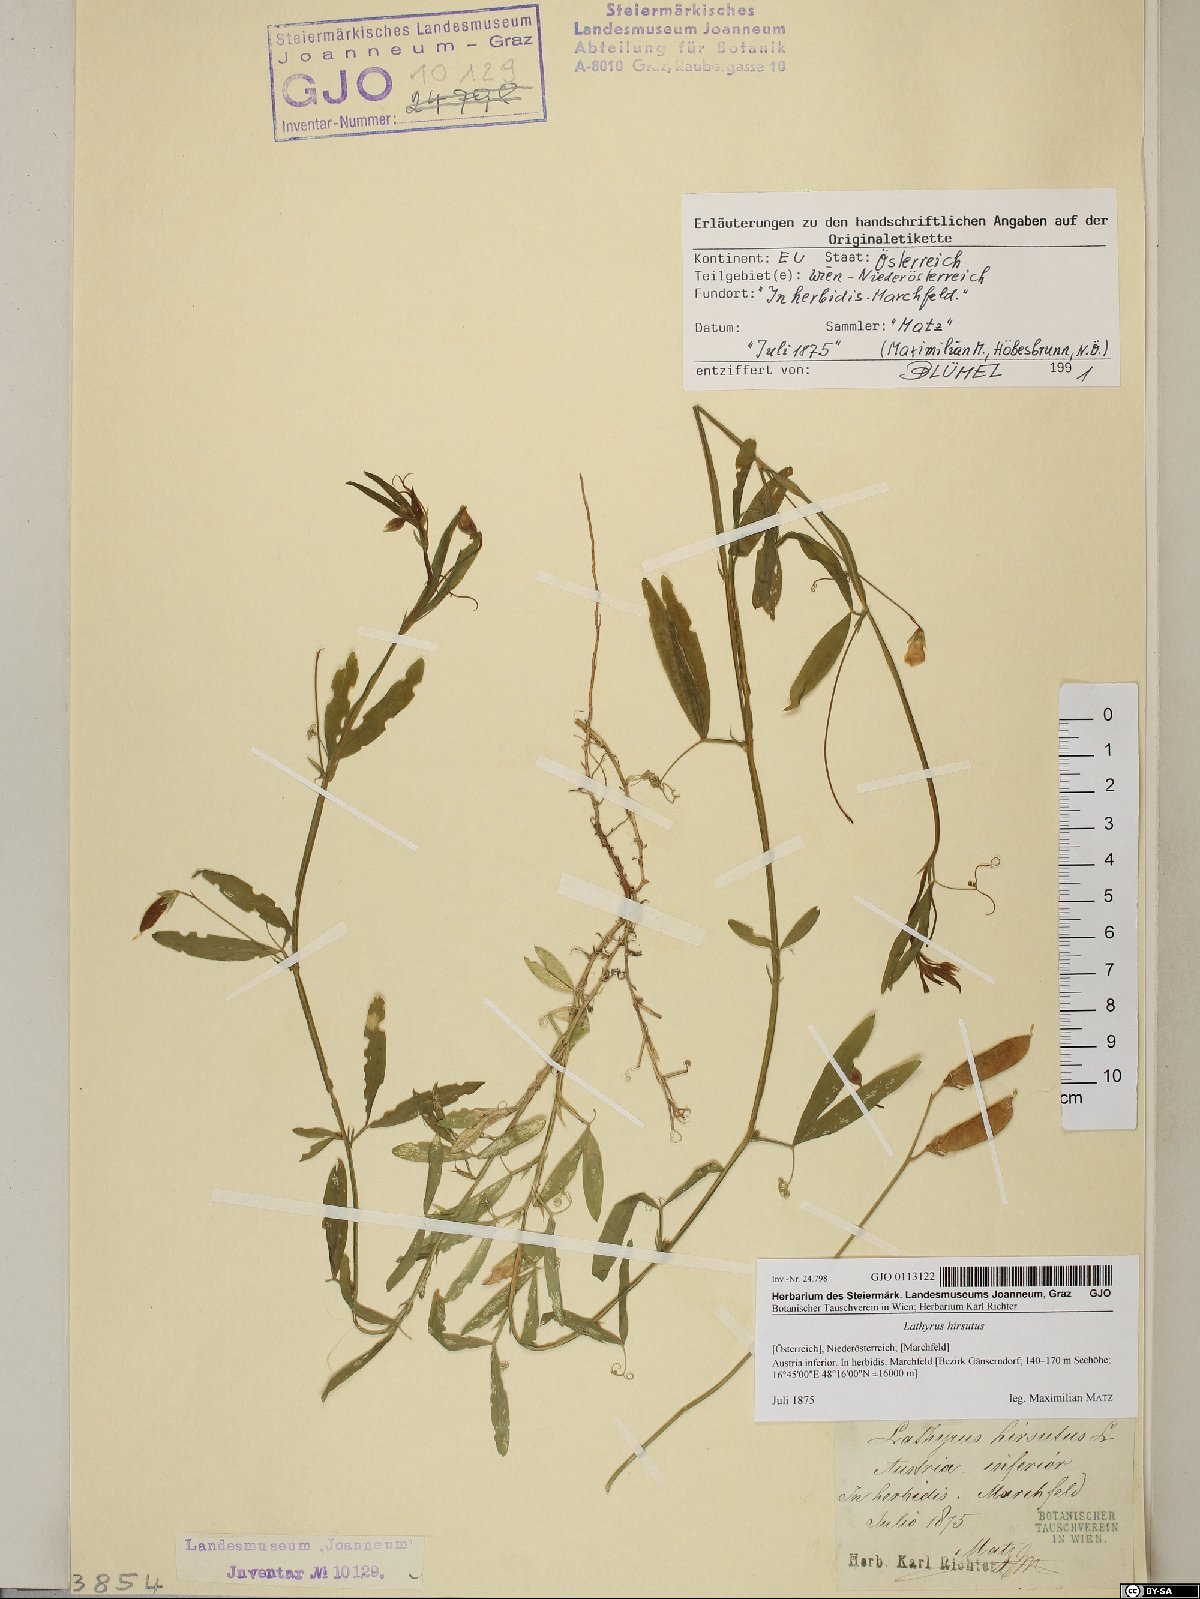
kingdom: Plantae
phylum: Tracheophyta
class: Magnoliopsida
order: Fabales
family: Fabaceae
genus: Lathyrus
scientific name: Lathyrus hirsutus
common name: Hairy vetchling
